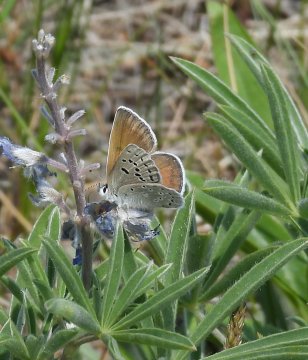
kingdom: Animalia
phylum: Arthropoda
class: Insecta
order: Lepidoptera
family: Lycaenidae
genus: Icaricia
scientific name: Icaricia icarioides
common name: Boisduval's Blue
